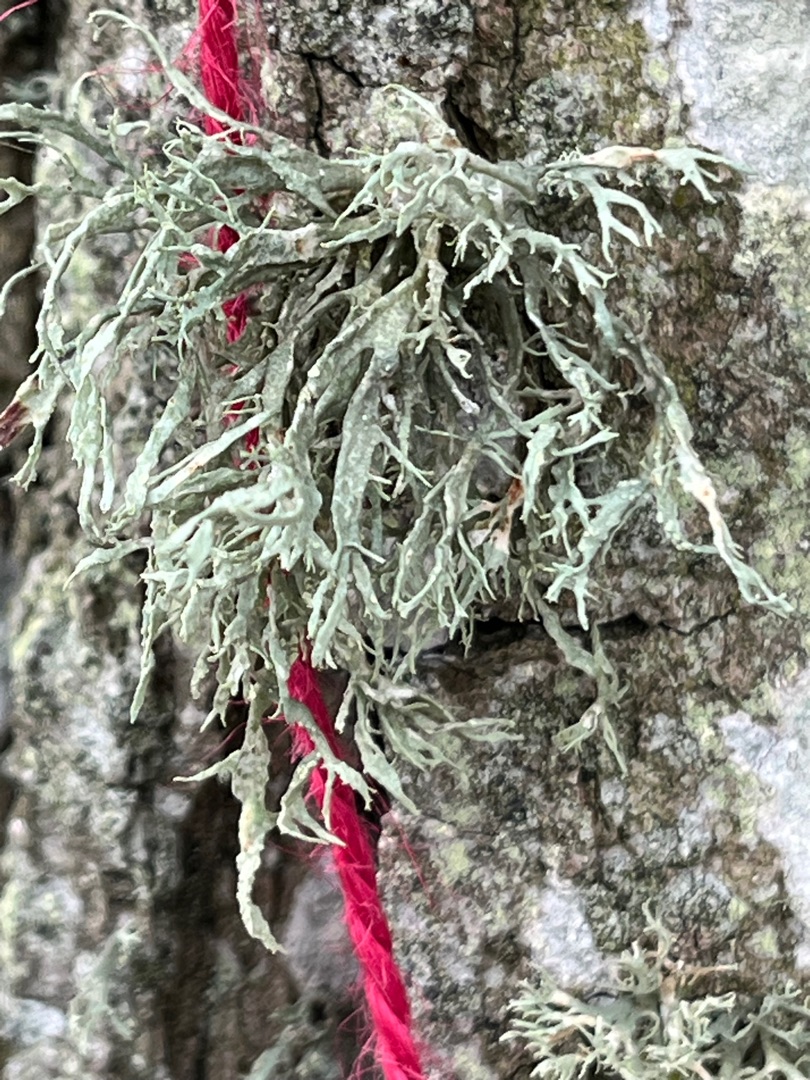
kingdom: Fungi
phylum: Ascomycota
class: Lecanoromycetes
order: Lecanorales
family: Ramalinaceae
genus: Ramalina
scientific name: Ramalina farinacea
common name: Melet grenlav
